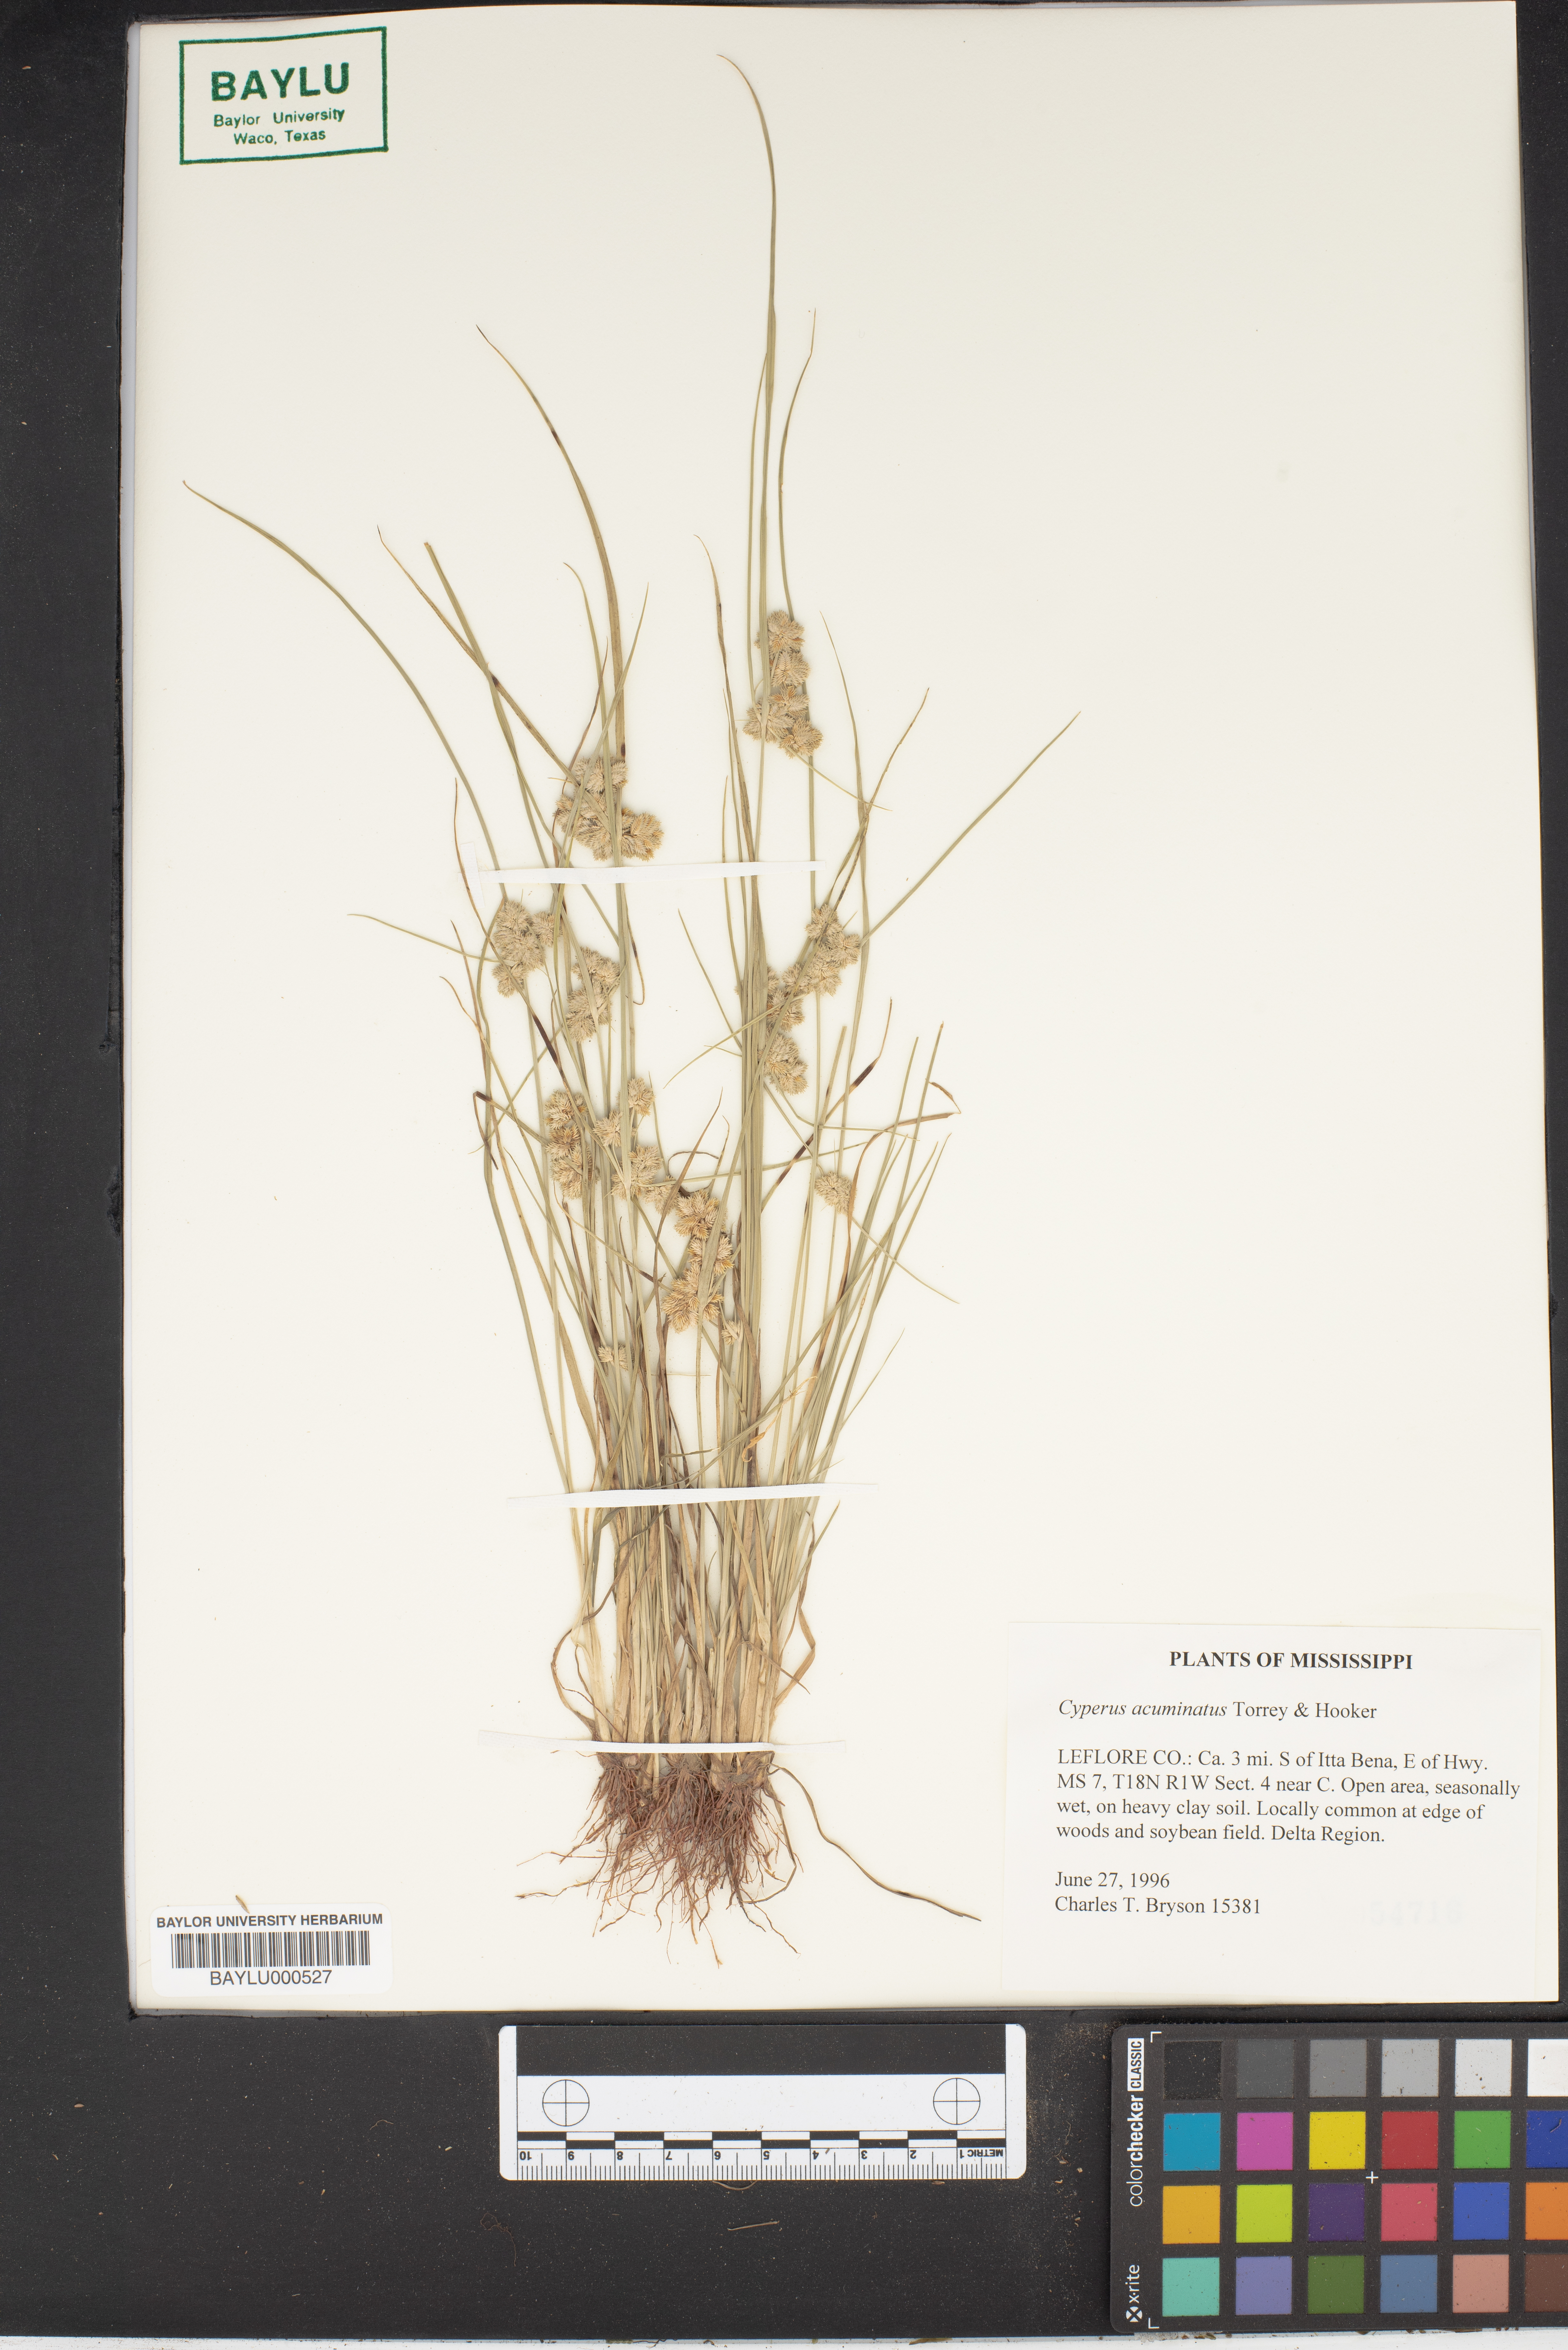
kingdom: Plantae
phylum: Tracheophyta
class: Liliopsida
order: Poales
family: Cyperaceae
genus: Cyperus
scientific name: Cyperus acuminatus
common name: Short-pointed cyperus
